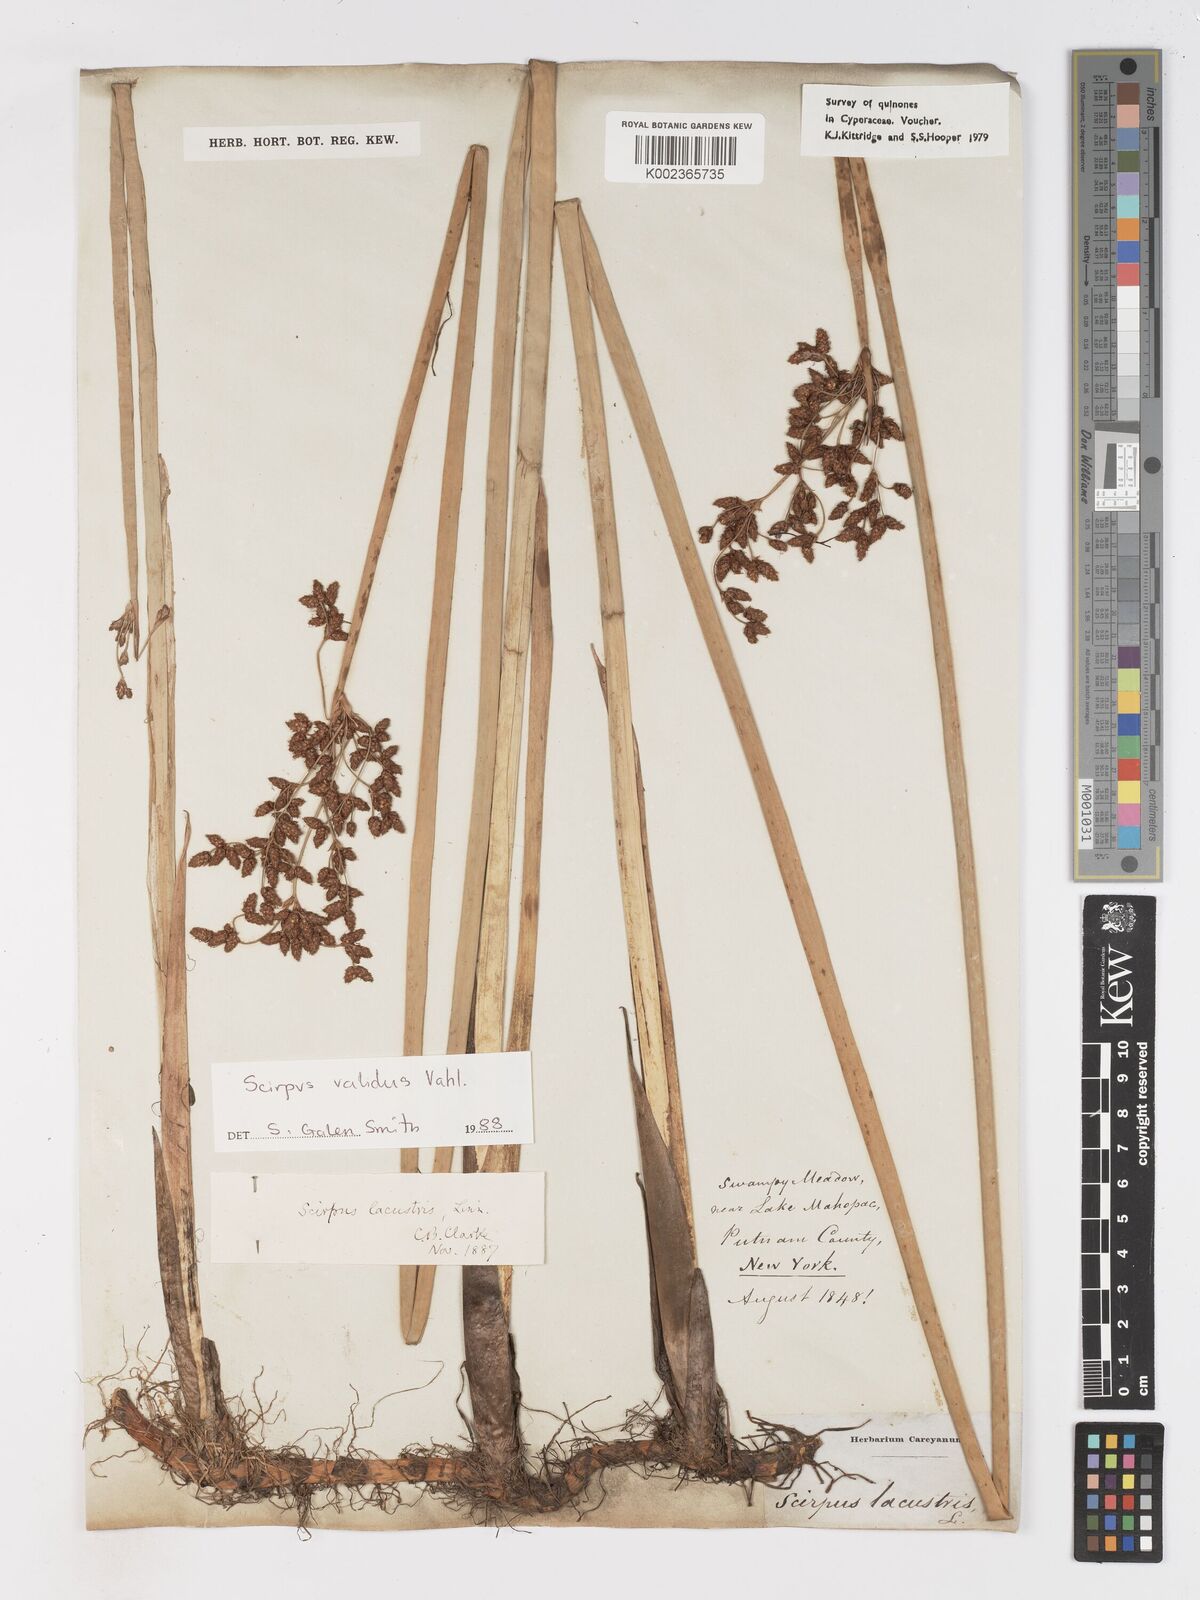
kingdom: Plantae
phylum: Tracheophyta
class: Liliopsida
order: Poales
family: Cyperaceae
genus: Schoenoplectus
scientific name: Schoenoplectus lacustris
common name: Common club-rush
